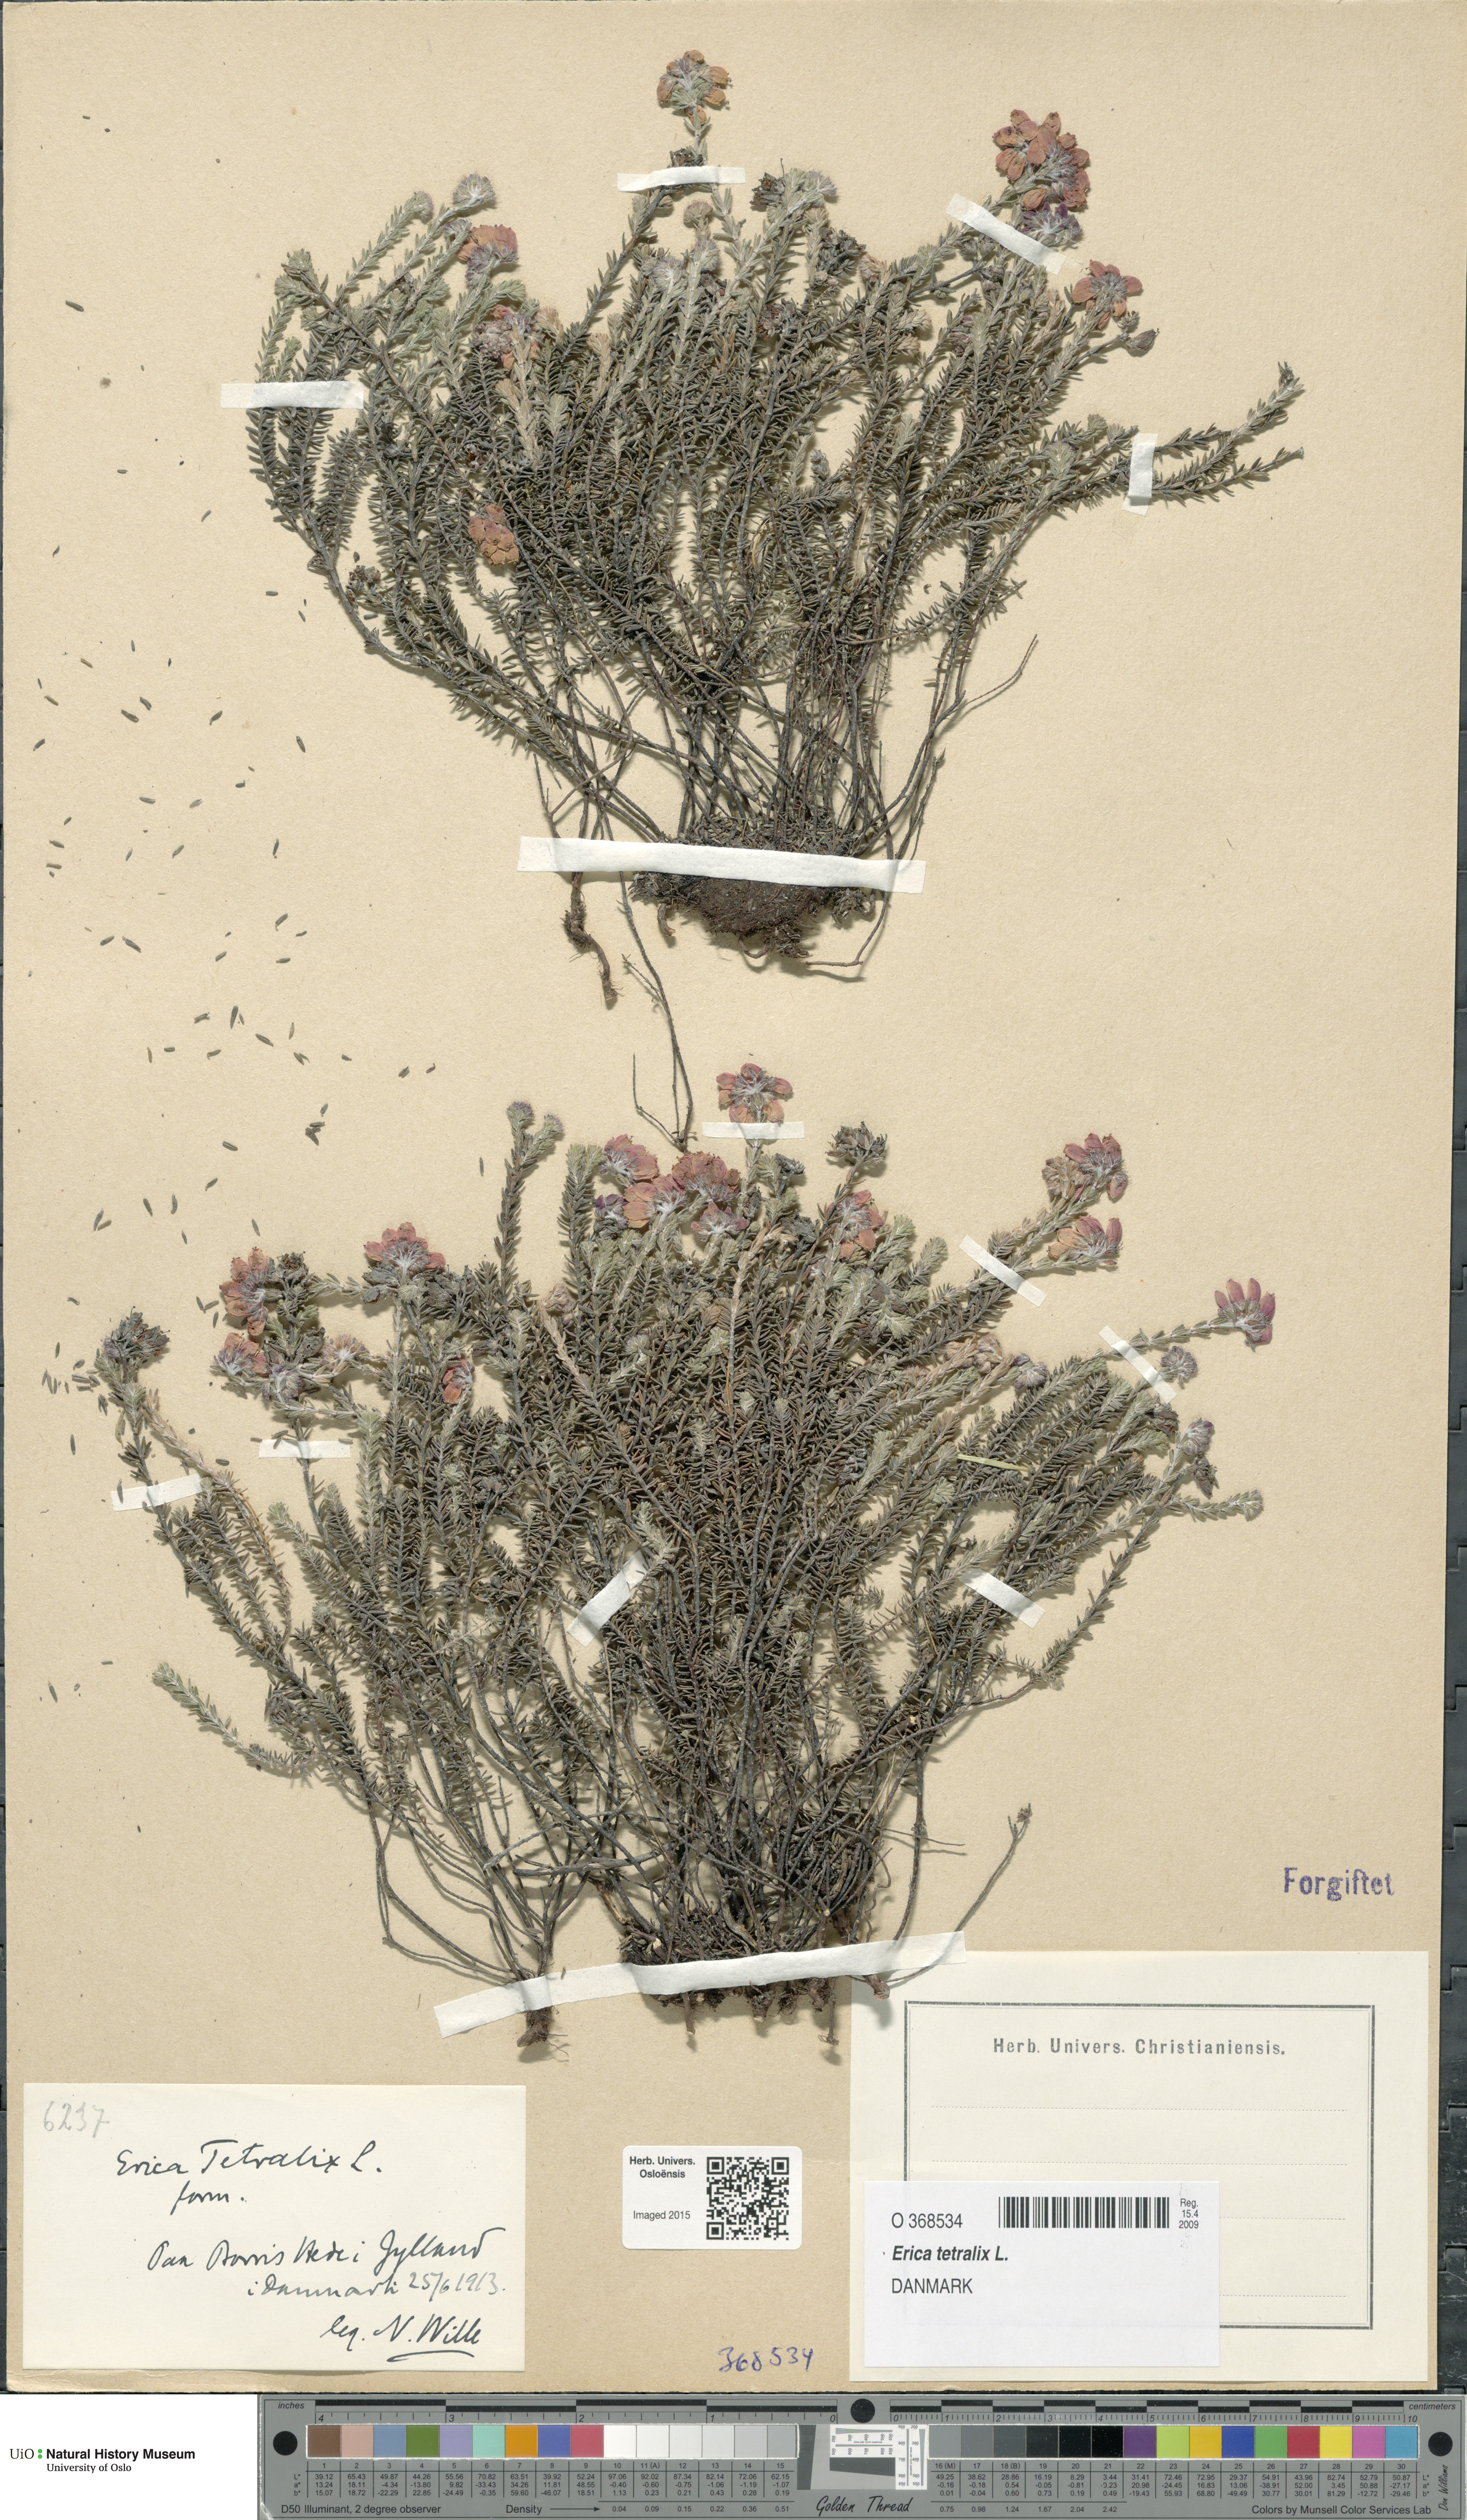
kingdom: Plantae
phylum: Tracheophyta
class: Magnoliopsida
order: Ericales
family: Ericaceae
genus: Erica
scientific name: Erica tetralix
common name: Cross-leaved heath
